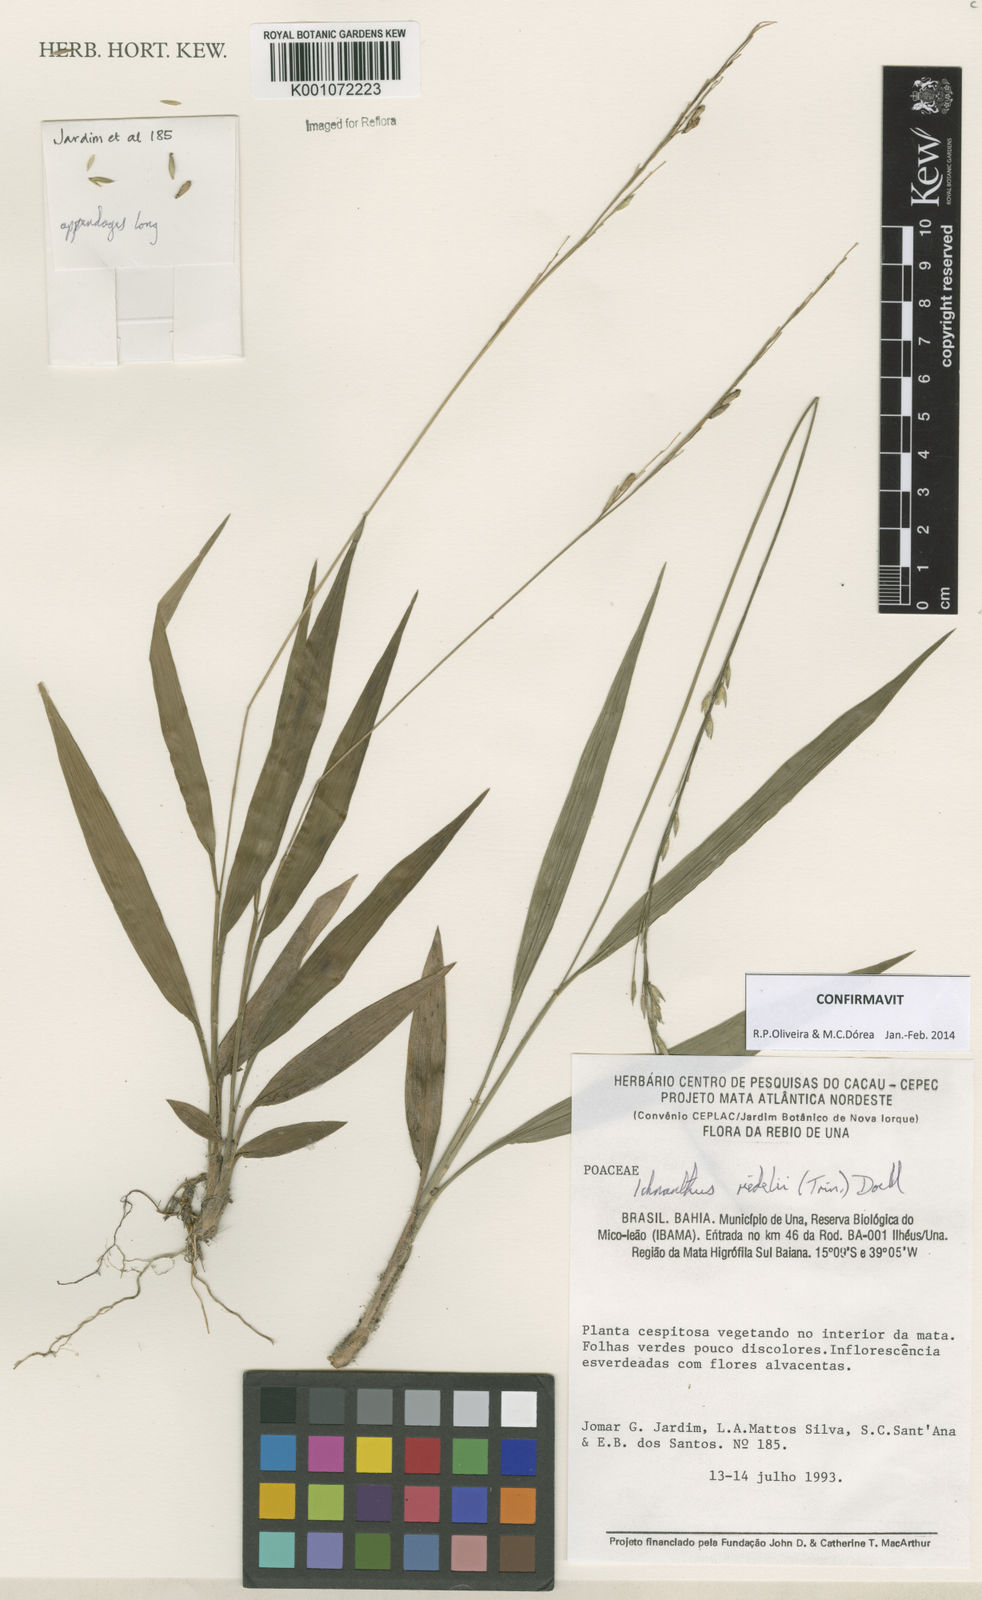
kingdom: Plantae
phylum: Tracheophyta
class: Liliopsida
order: Poales
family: Poaceae
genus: Ichnanthus
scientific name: Ichnanthus
